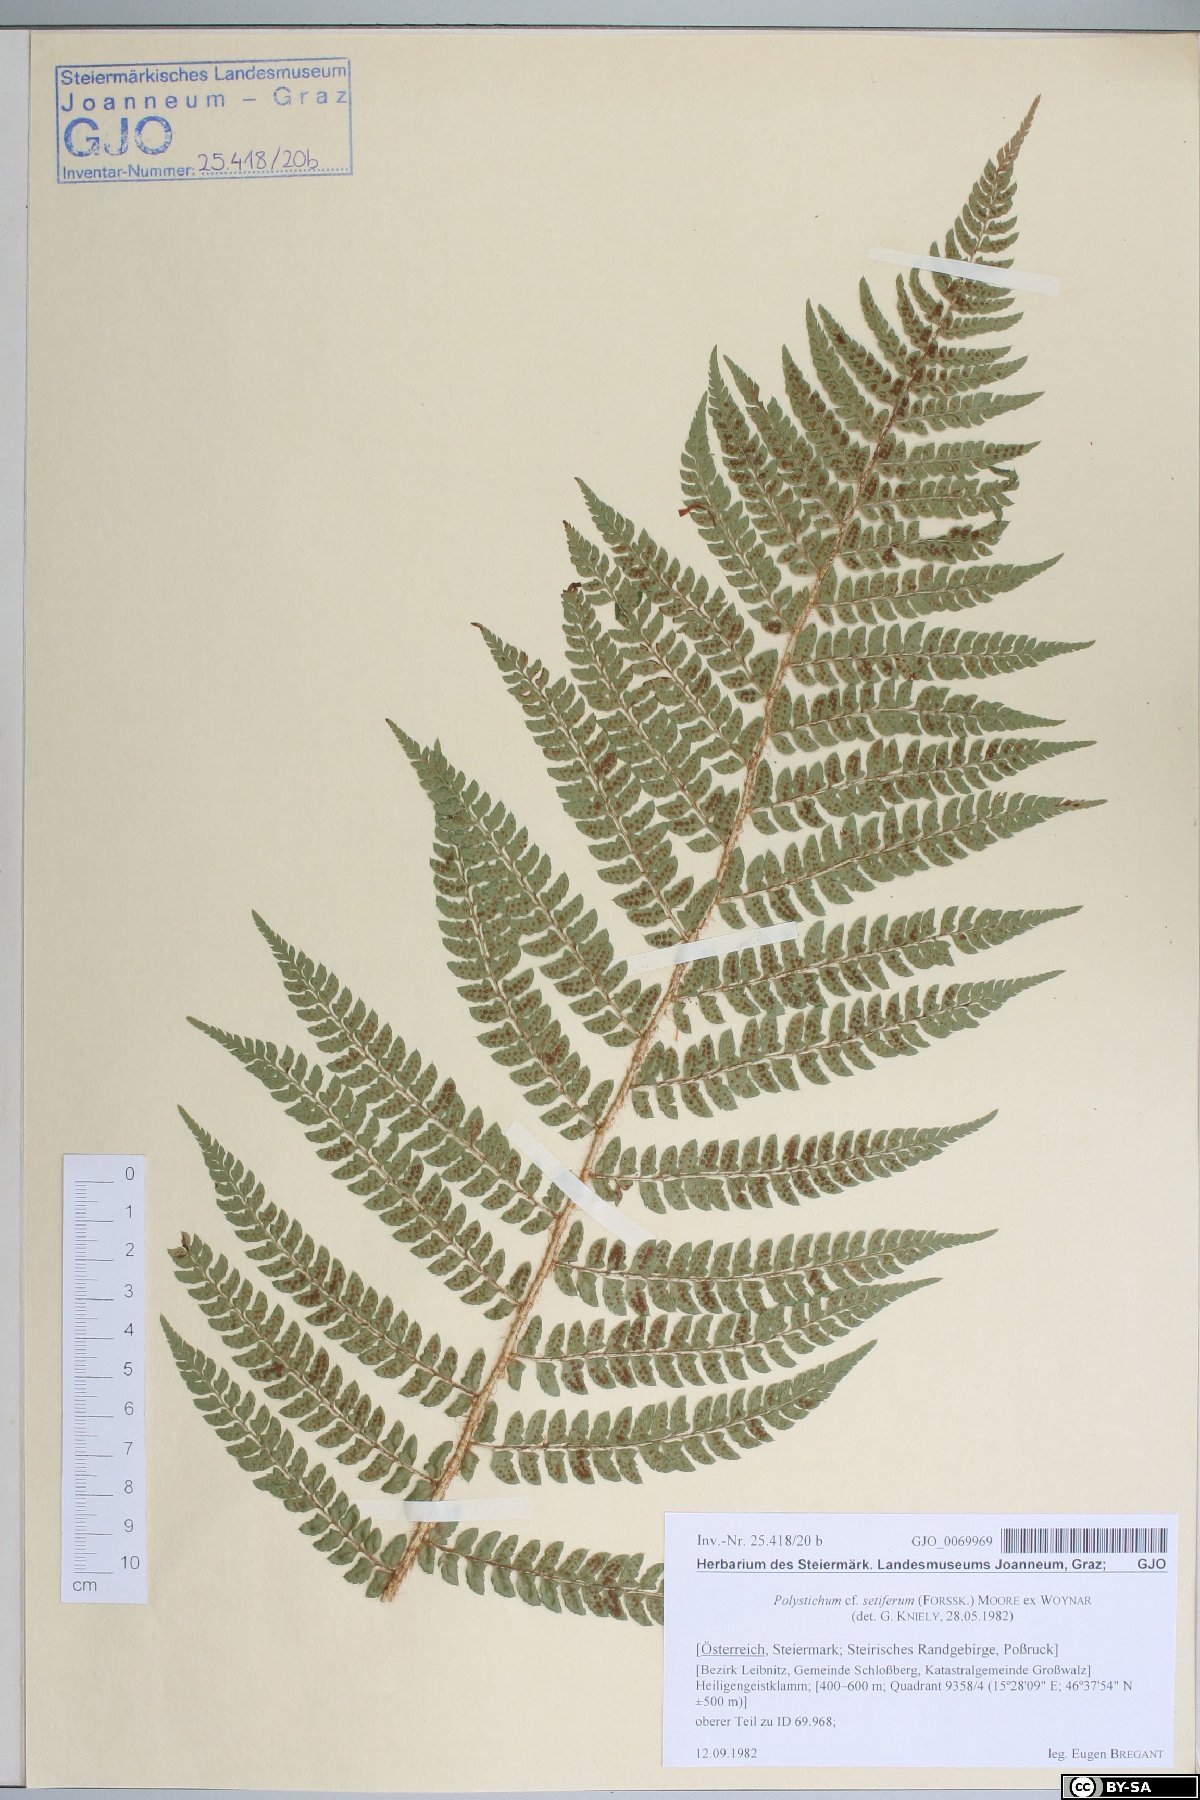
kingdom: Plantae
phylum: Tracheophyta
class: Polypodiopsida
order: Polypodiales
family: Dryopteridaceae
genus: Polystichum
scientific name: Polystichum setiferum
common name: Soft shield-fern
